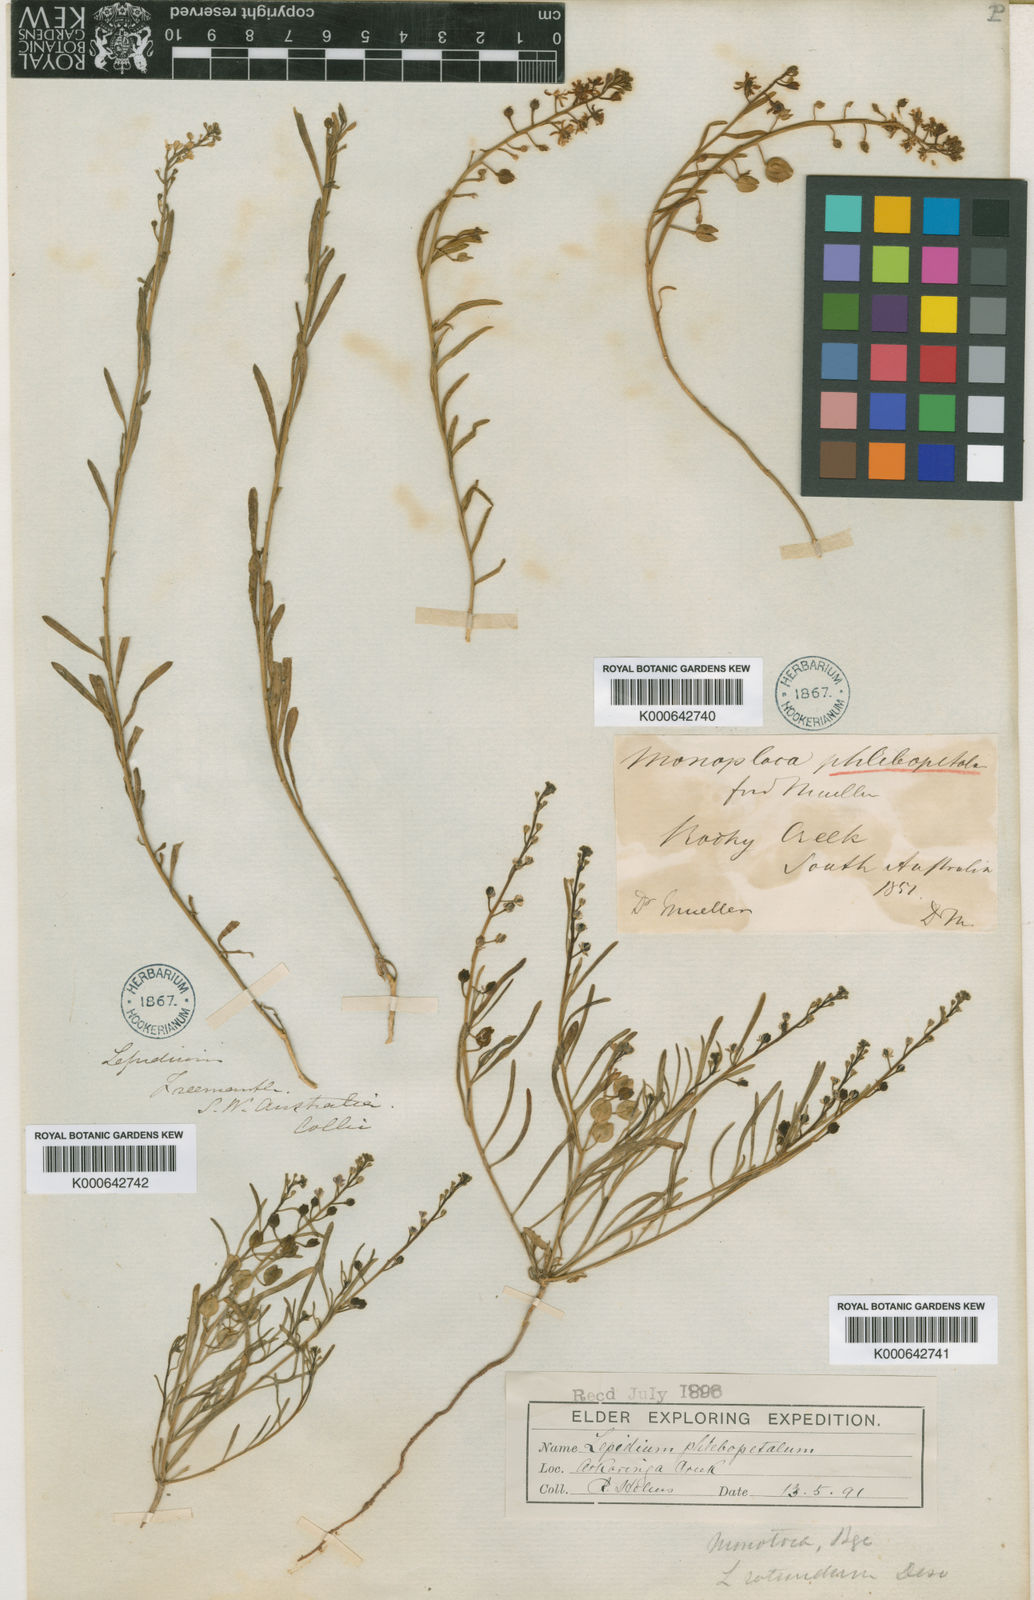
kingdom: Plantae
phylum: Tracheophyta
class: Magnoliopsida
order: Brassicales
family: Brassicaceae
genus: Lepidium
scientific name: Lepidium phlebopetalum
